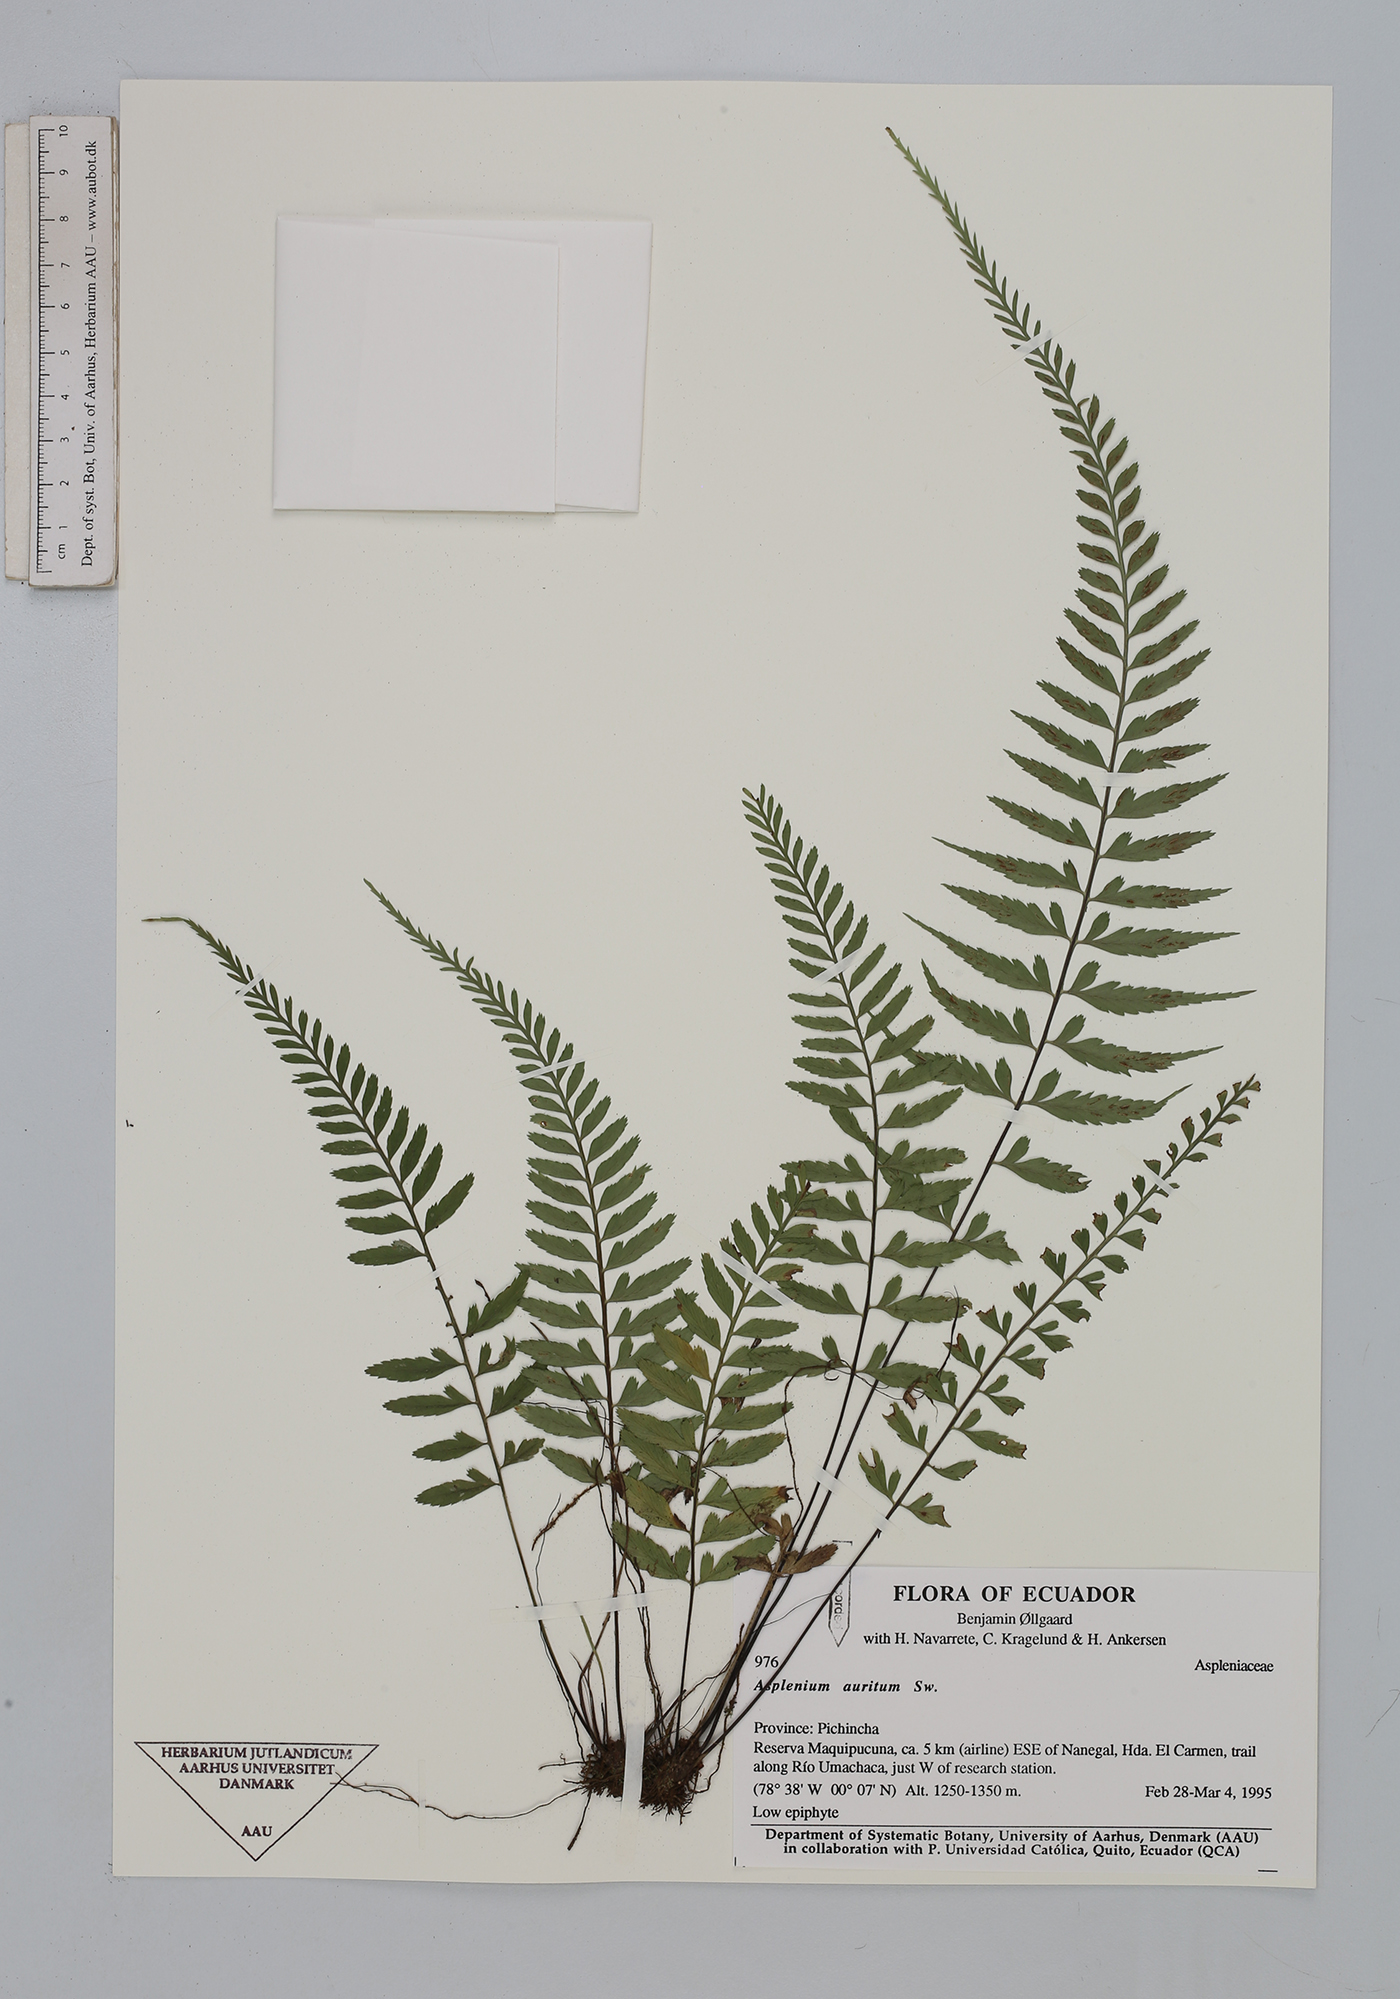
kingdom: Plantae
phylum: Tracheophyta
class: Polypodiopsida
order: Polypodiales
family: Aspleniaceae
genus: Asplenium
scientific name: Asplenium auritum
